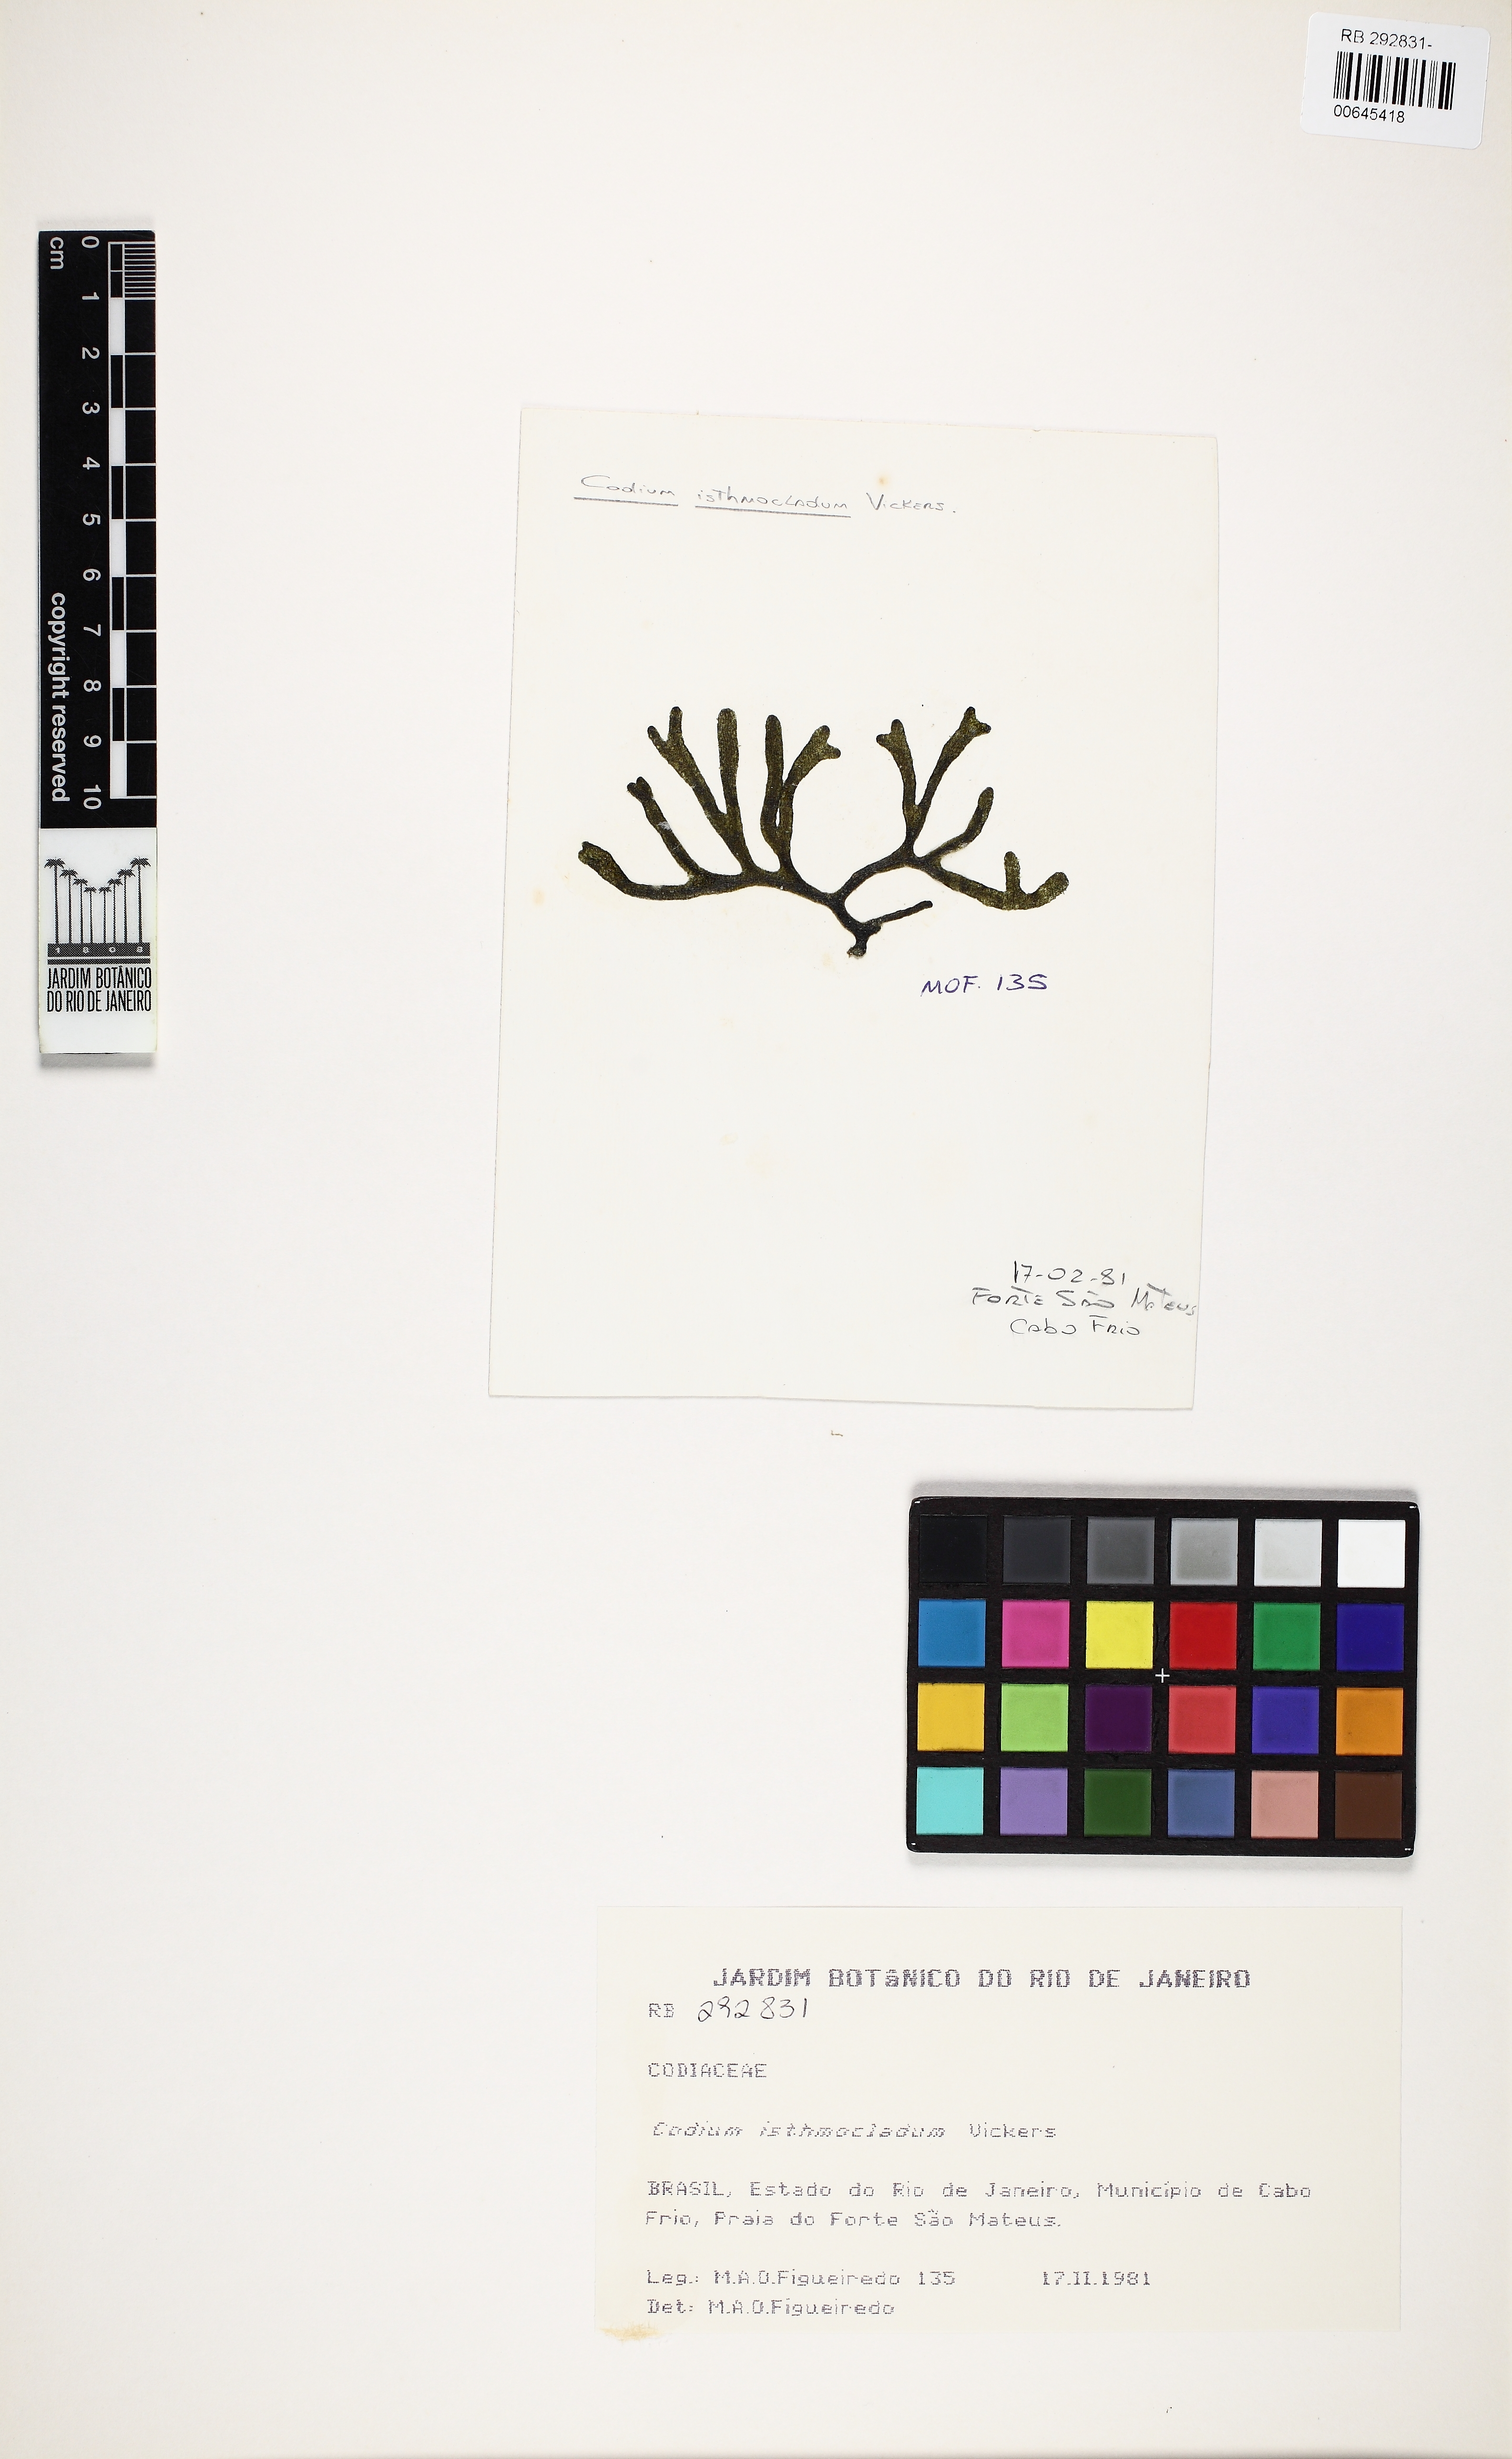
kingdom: Plantae
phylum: Chlorophyta
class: Ulvophyceae
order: Bryopsidales
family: Codiaceae
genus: Codium
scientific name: Codium isthmocladum
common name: Dead man's fingers
